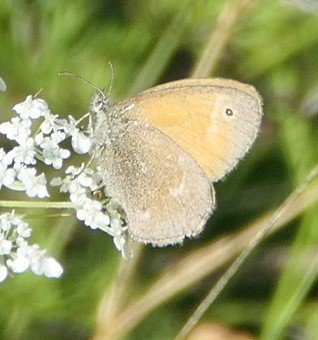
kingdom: Animalia
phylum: Arthropoda
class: Insecta
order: Lepidoptera
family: Nymphalidae
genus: Coenonympha
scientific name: Coenonympha tullia
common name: Large Heath
